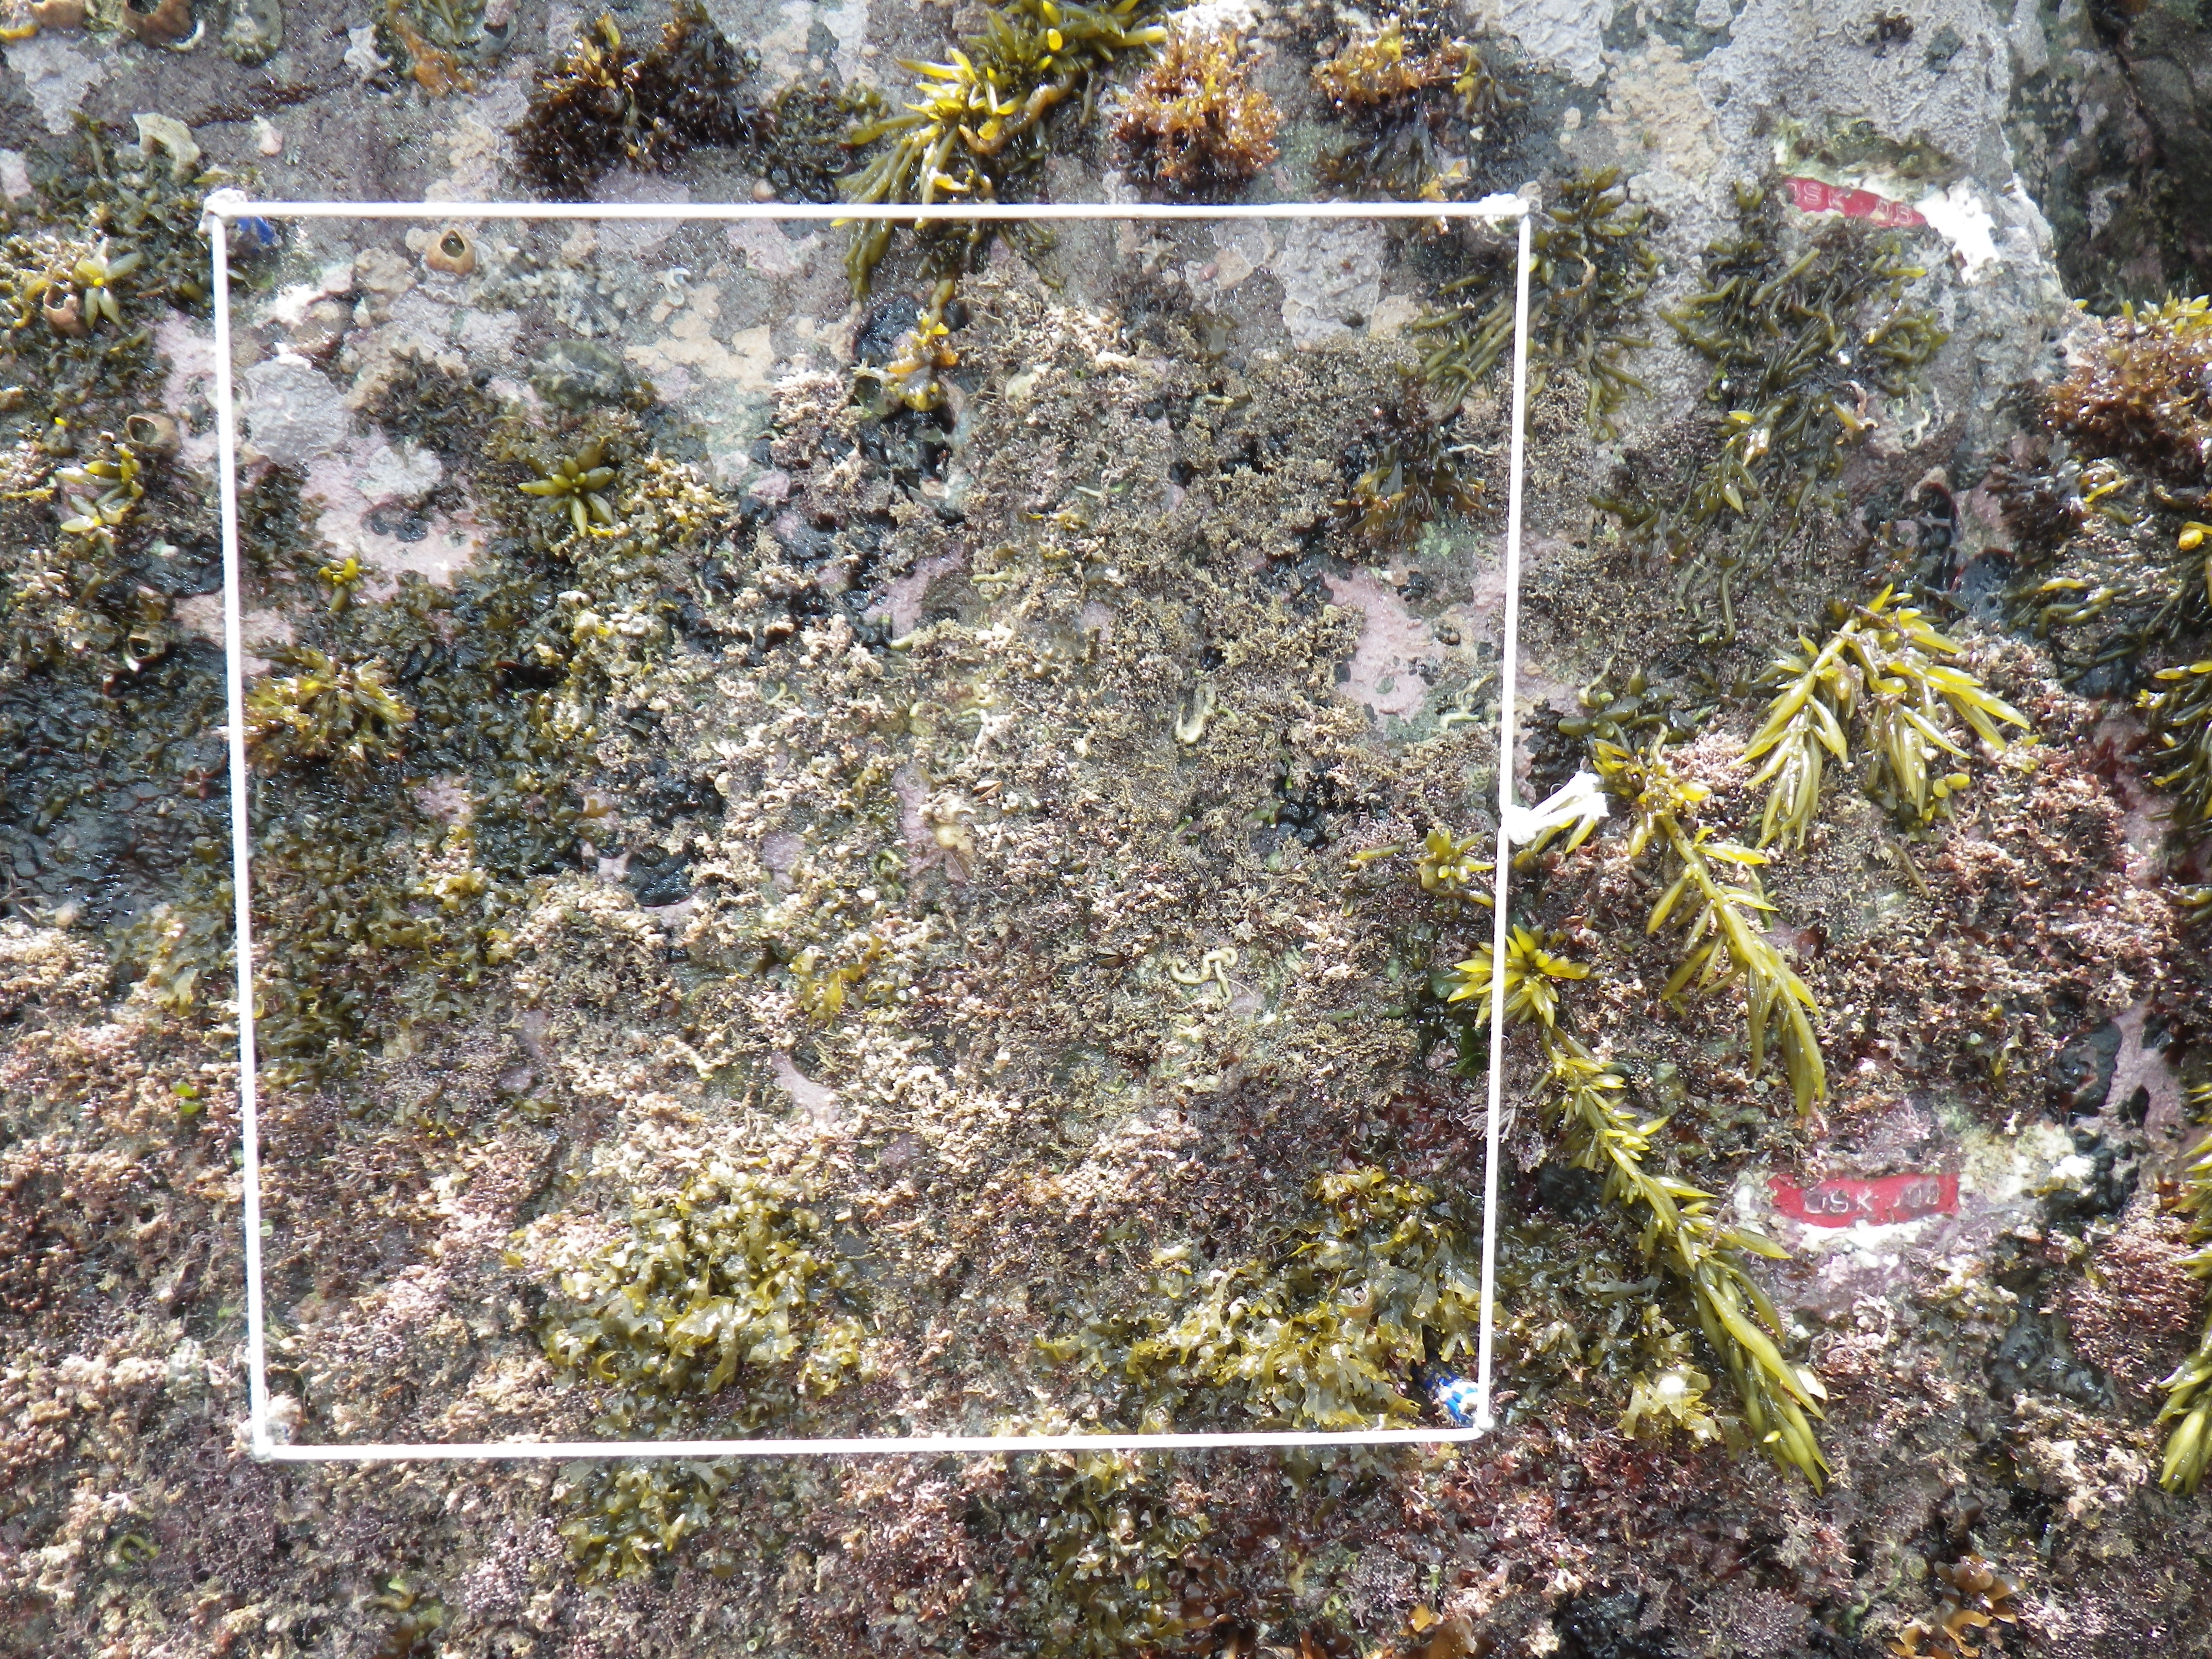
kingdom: Chromista
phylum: Ochrophyta
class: Phaeophyceae
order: Fucales
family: Sargassaceae
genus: Sargassum
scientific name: Sargassum fusiforme
